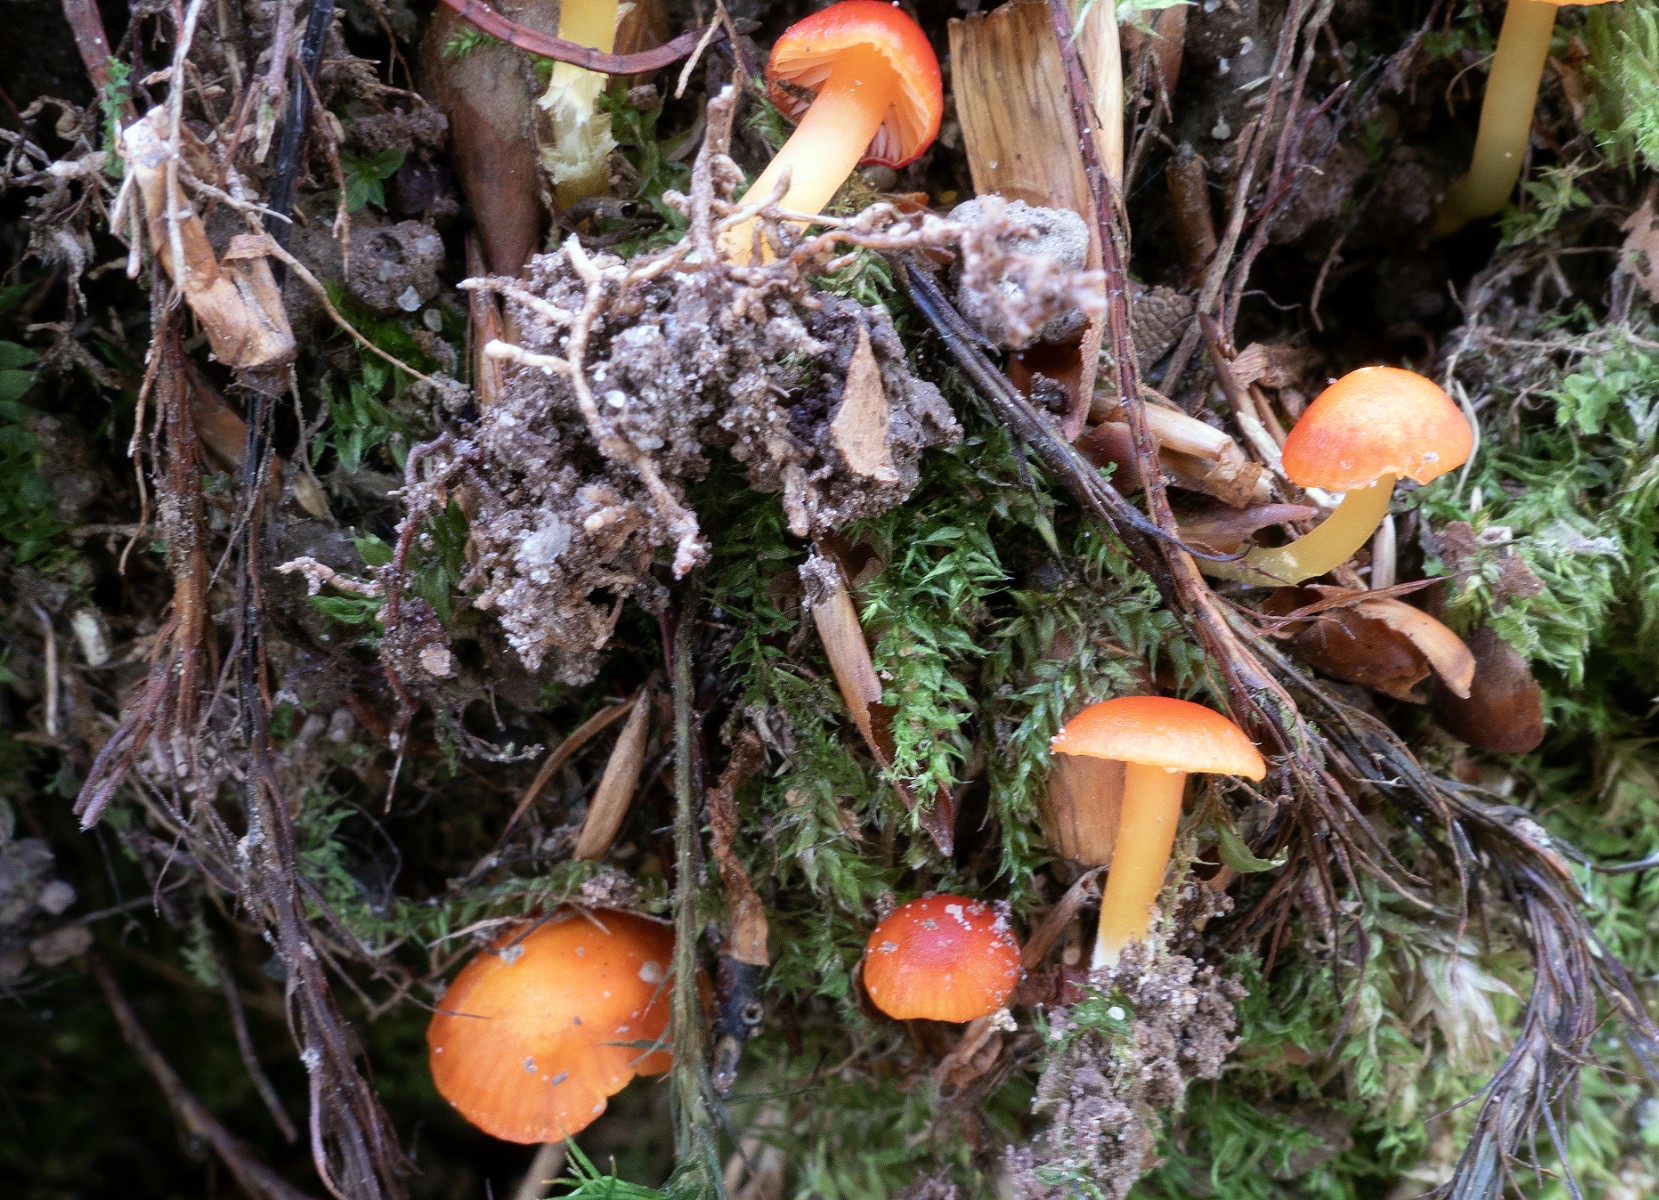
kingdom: Fungi
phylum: Basidiomycota
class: Agaricomycetes
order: Agaricales
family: Hygrophoraceae
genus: Hygrocybe
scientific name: Hygrocybe insipida
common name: liden vokshat
